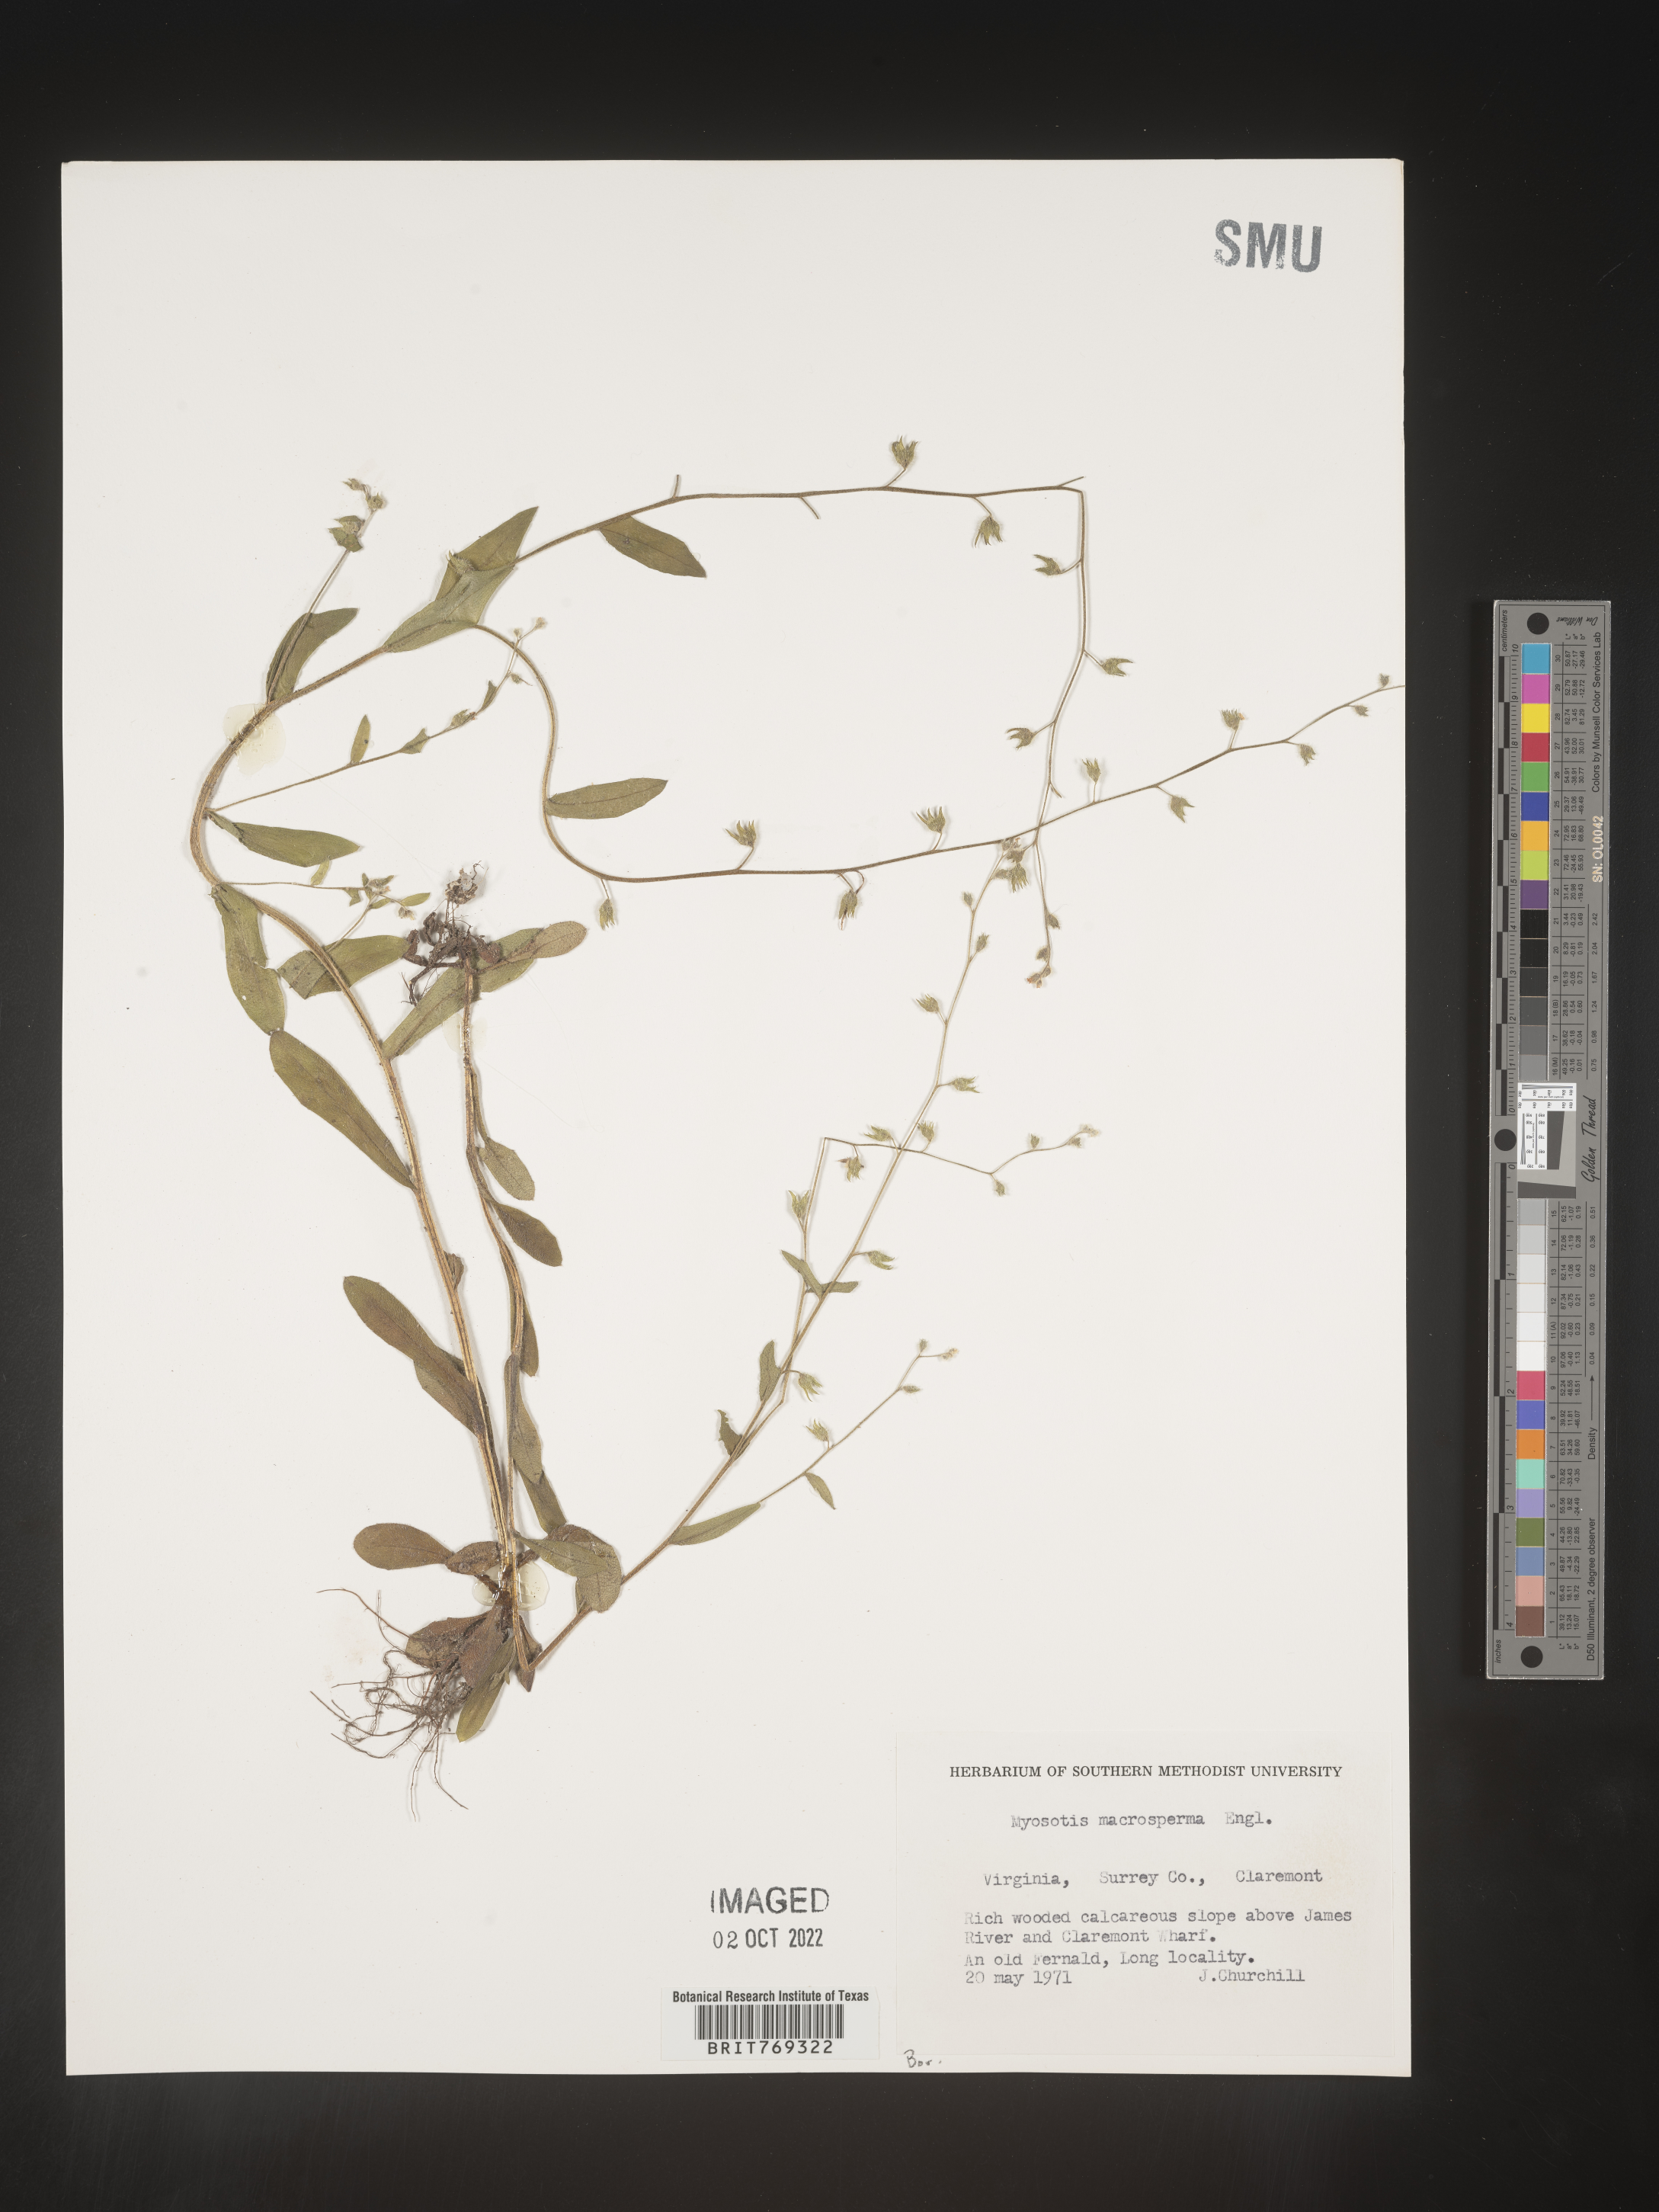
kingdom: Plantae
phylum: Tracheophyta
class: Magnoliopsida
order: Boraginales
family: Boraginaceae
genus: Myosotis
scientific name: Myosotis macrosperma
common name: Large-seed forget-me-not
